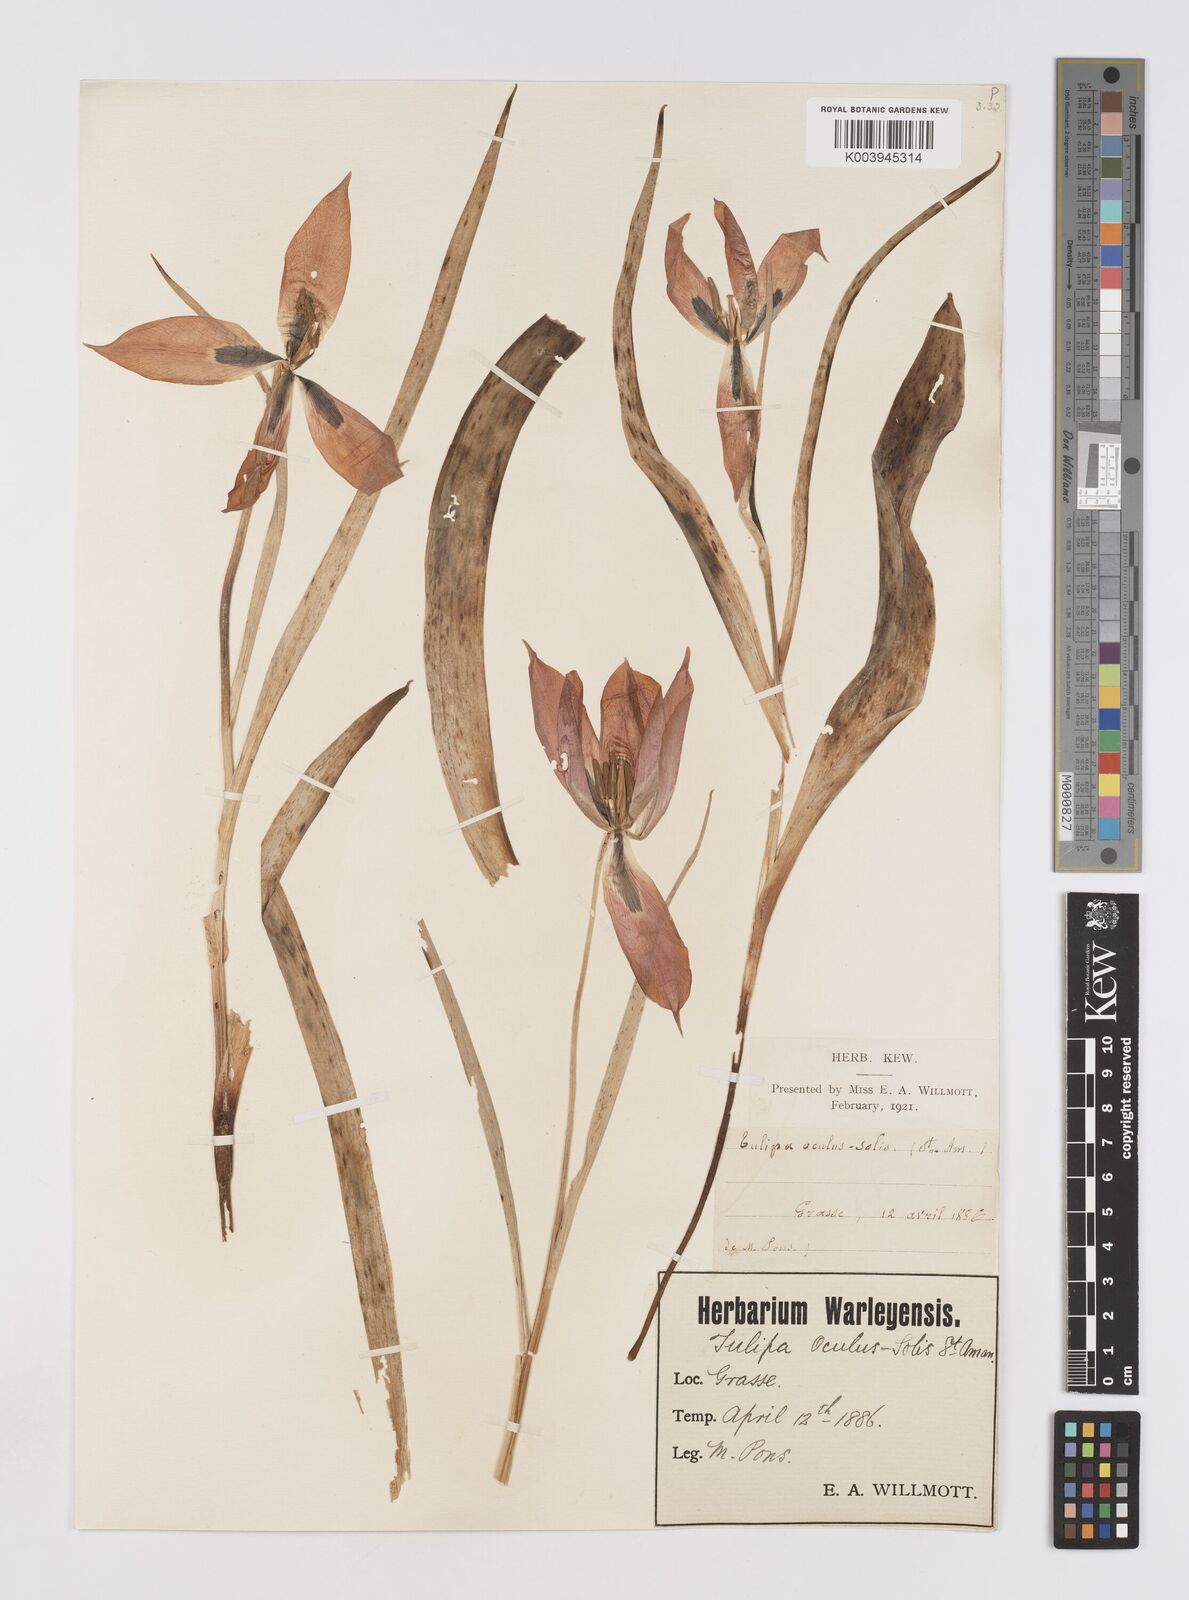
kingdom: Plantae
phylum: Tracheophyta
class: Liliopsida
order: Liliales
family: Liliaceae
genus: Tulipa
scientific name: Tulipa agenensis
